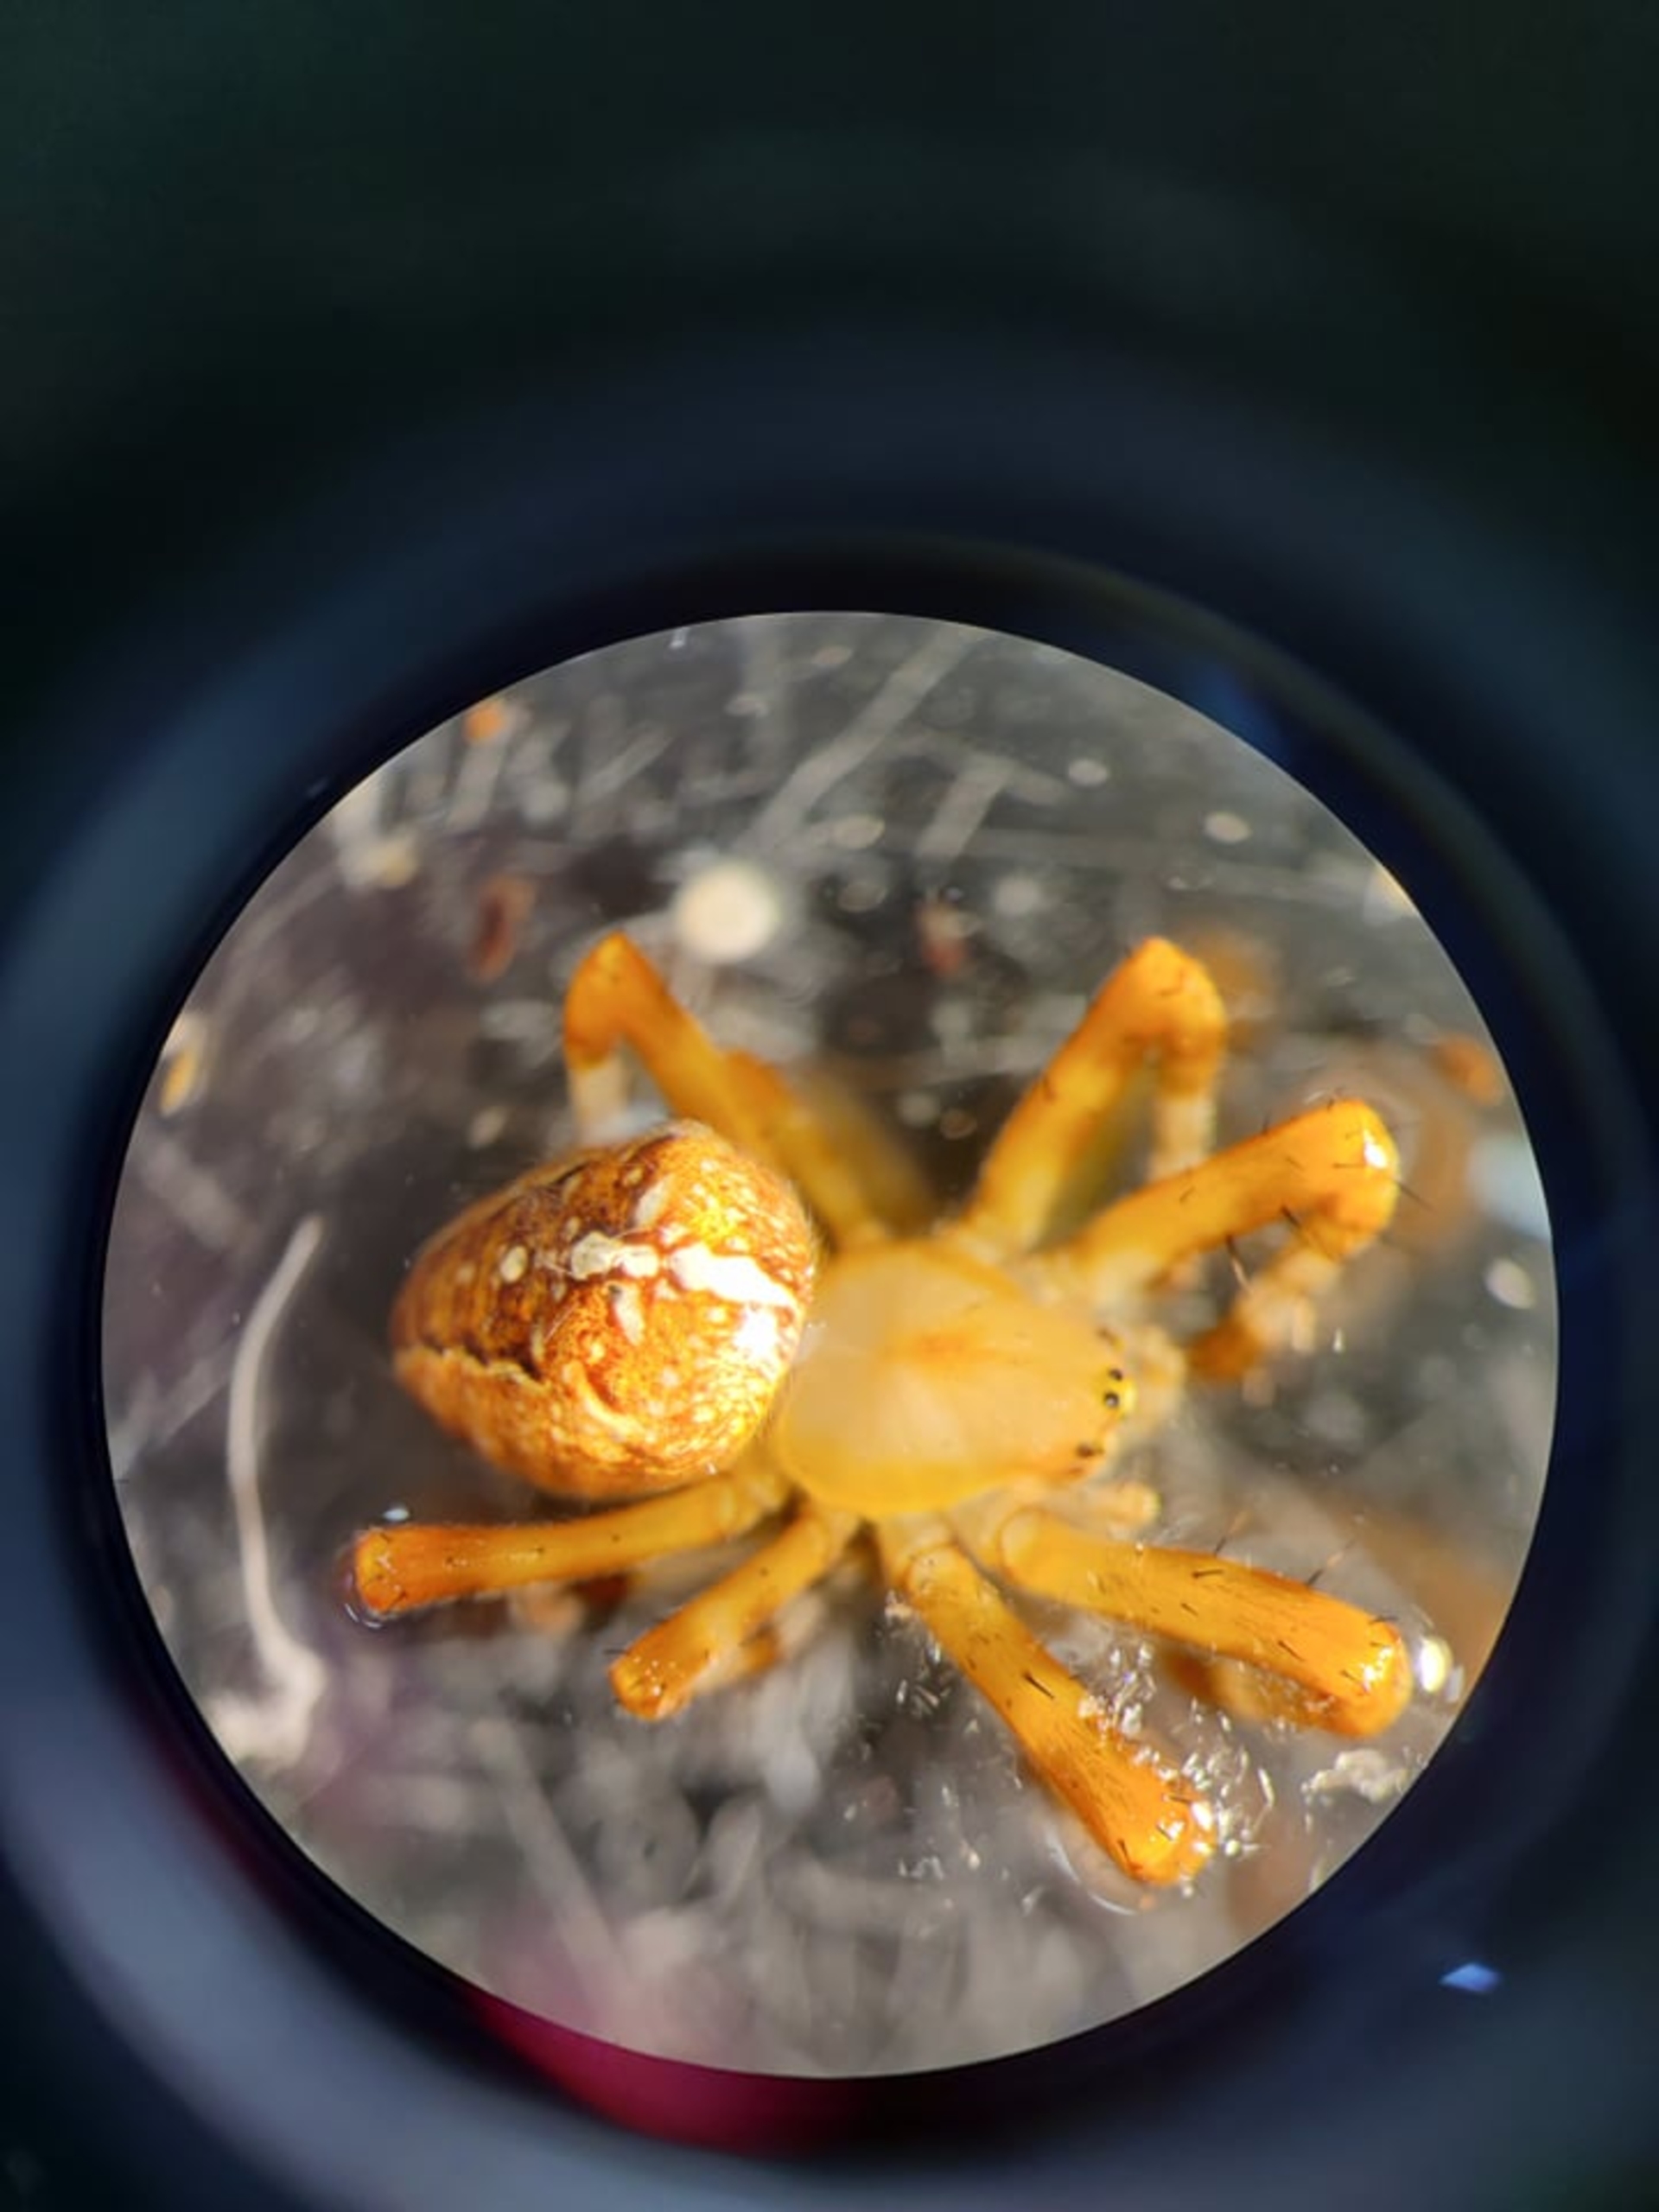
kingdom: Animalia
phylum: Arthropoda
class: Arachnida
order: Araneae
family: Araneidae
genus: Araneus
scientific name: Araneus diadematus
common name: Korsedderkop
